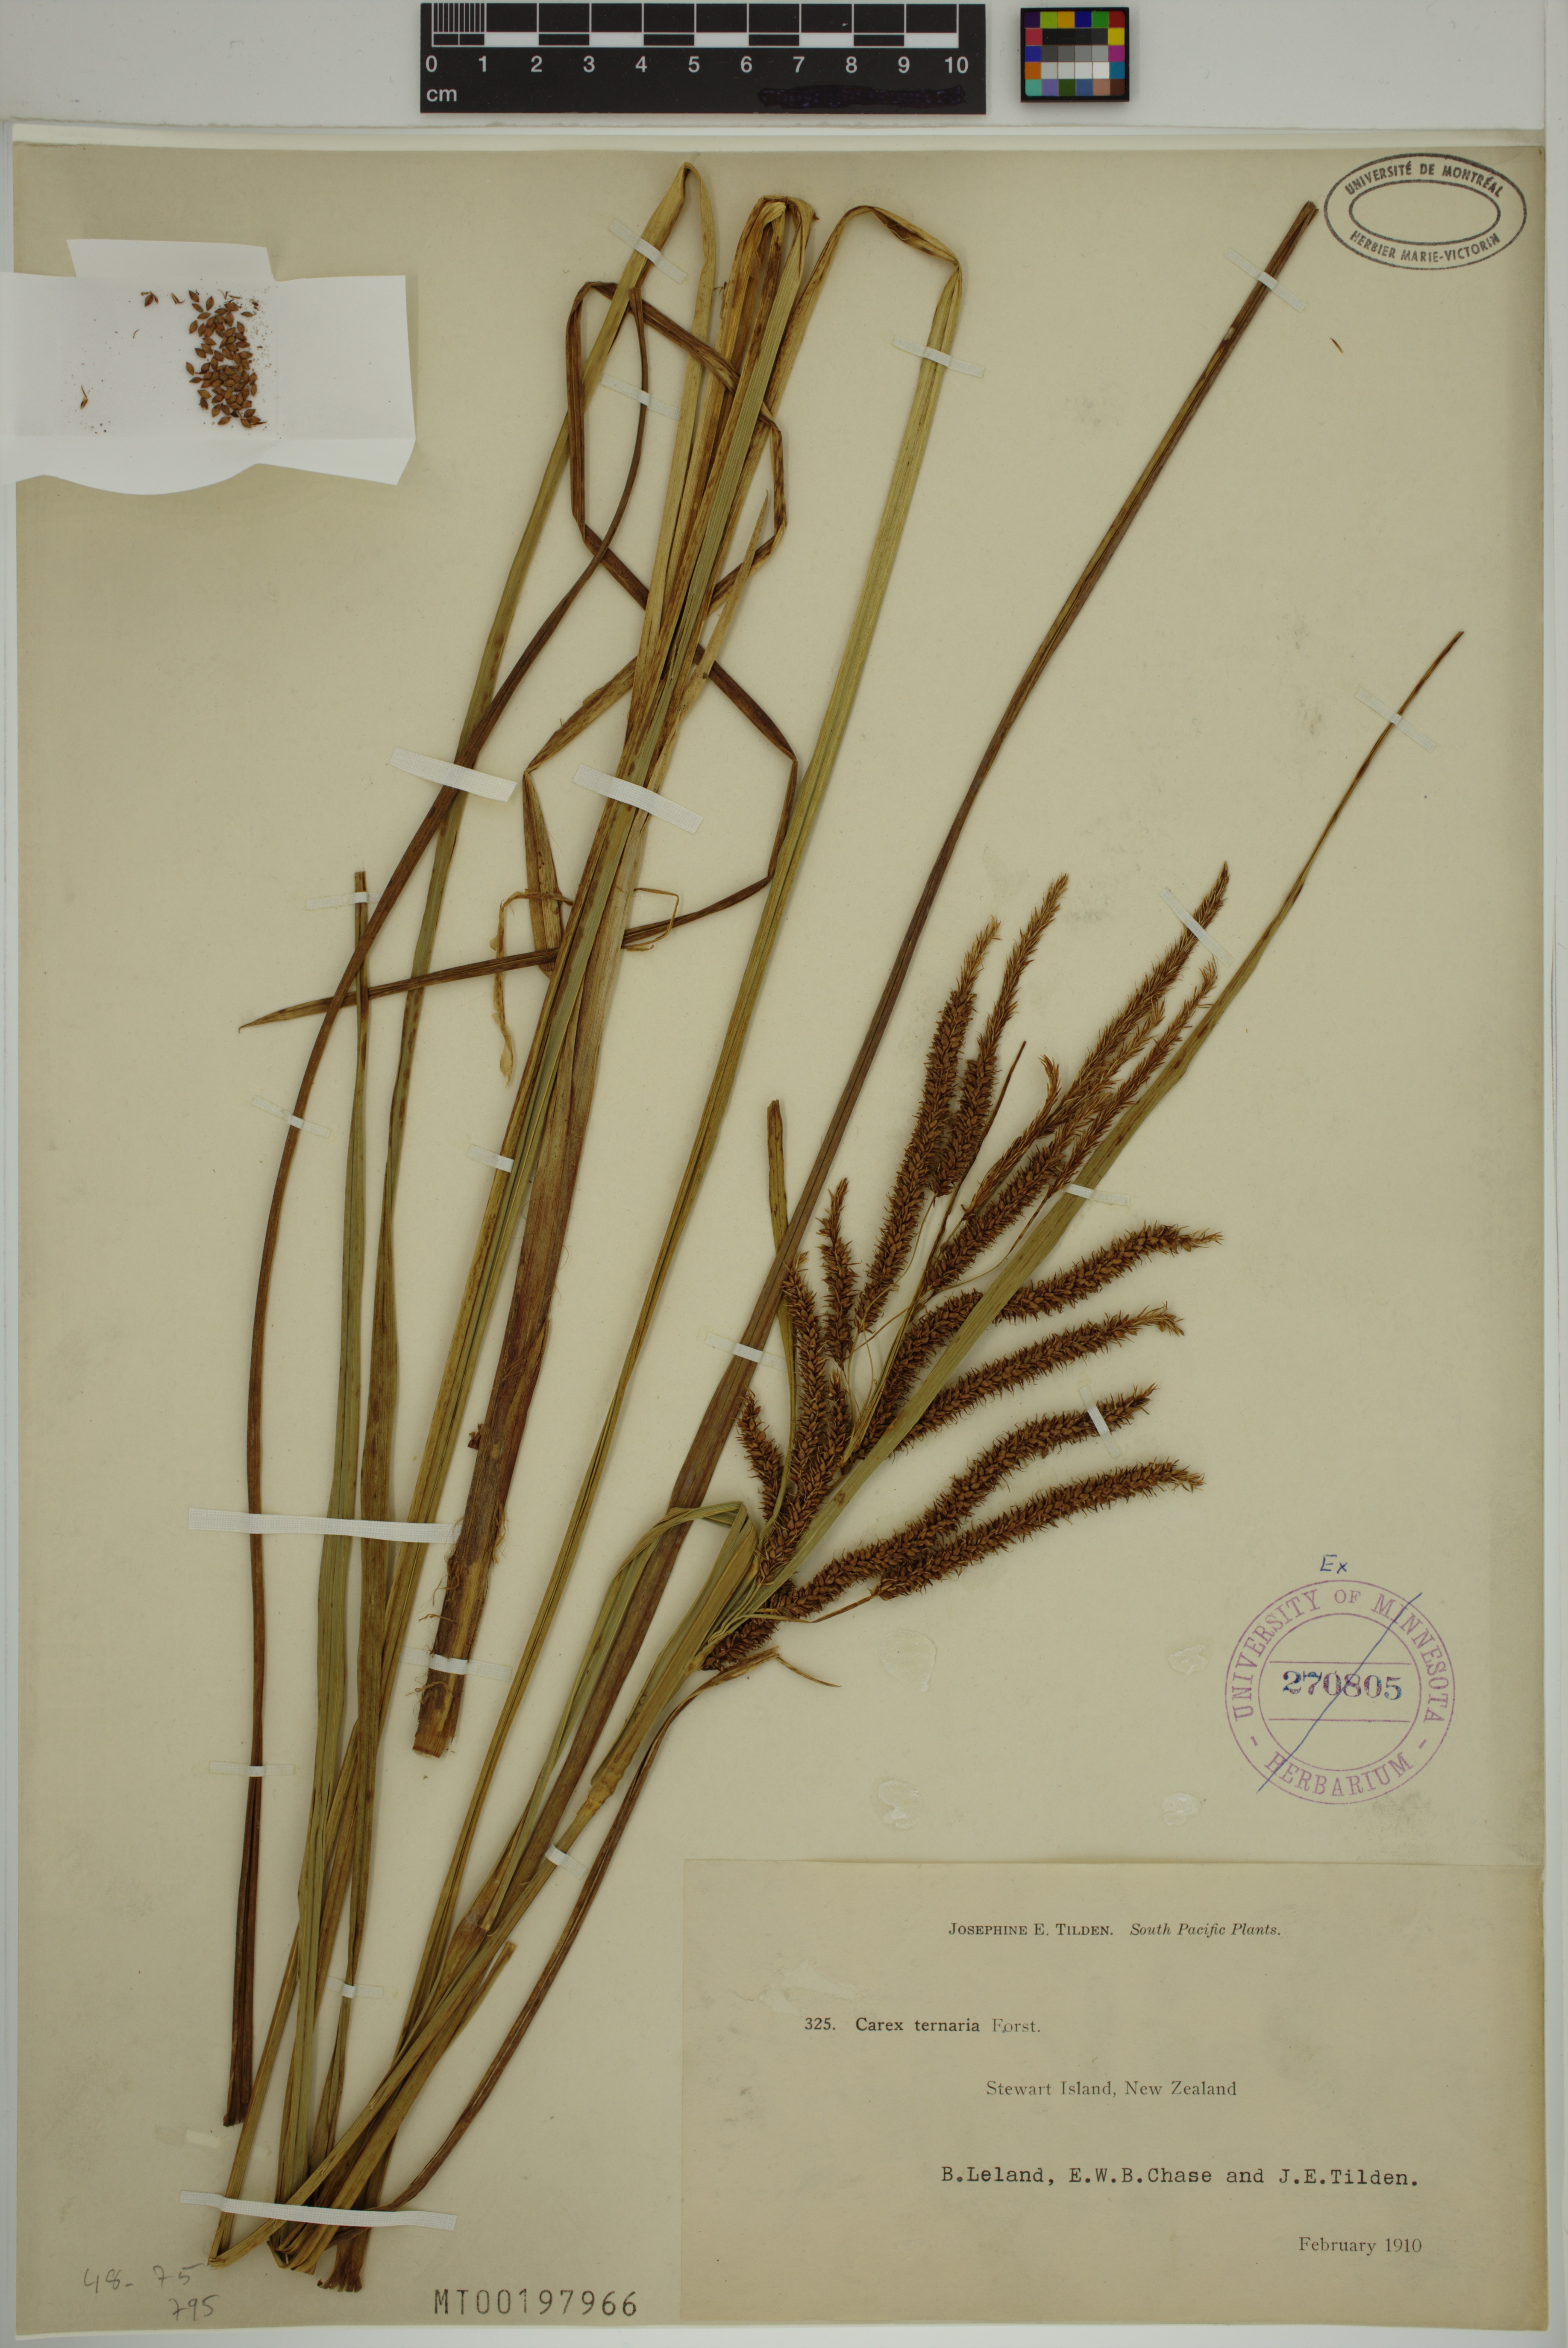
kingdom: Plantae
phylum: Tracheophyta
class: Liliopsida
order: Poales
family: Cyperaceae
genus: Carex
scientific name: Carex geminata
